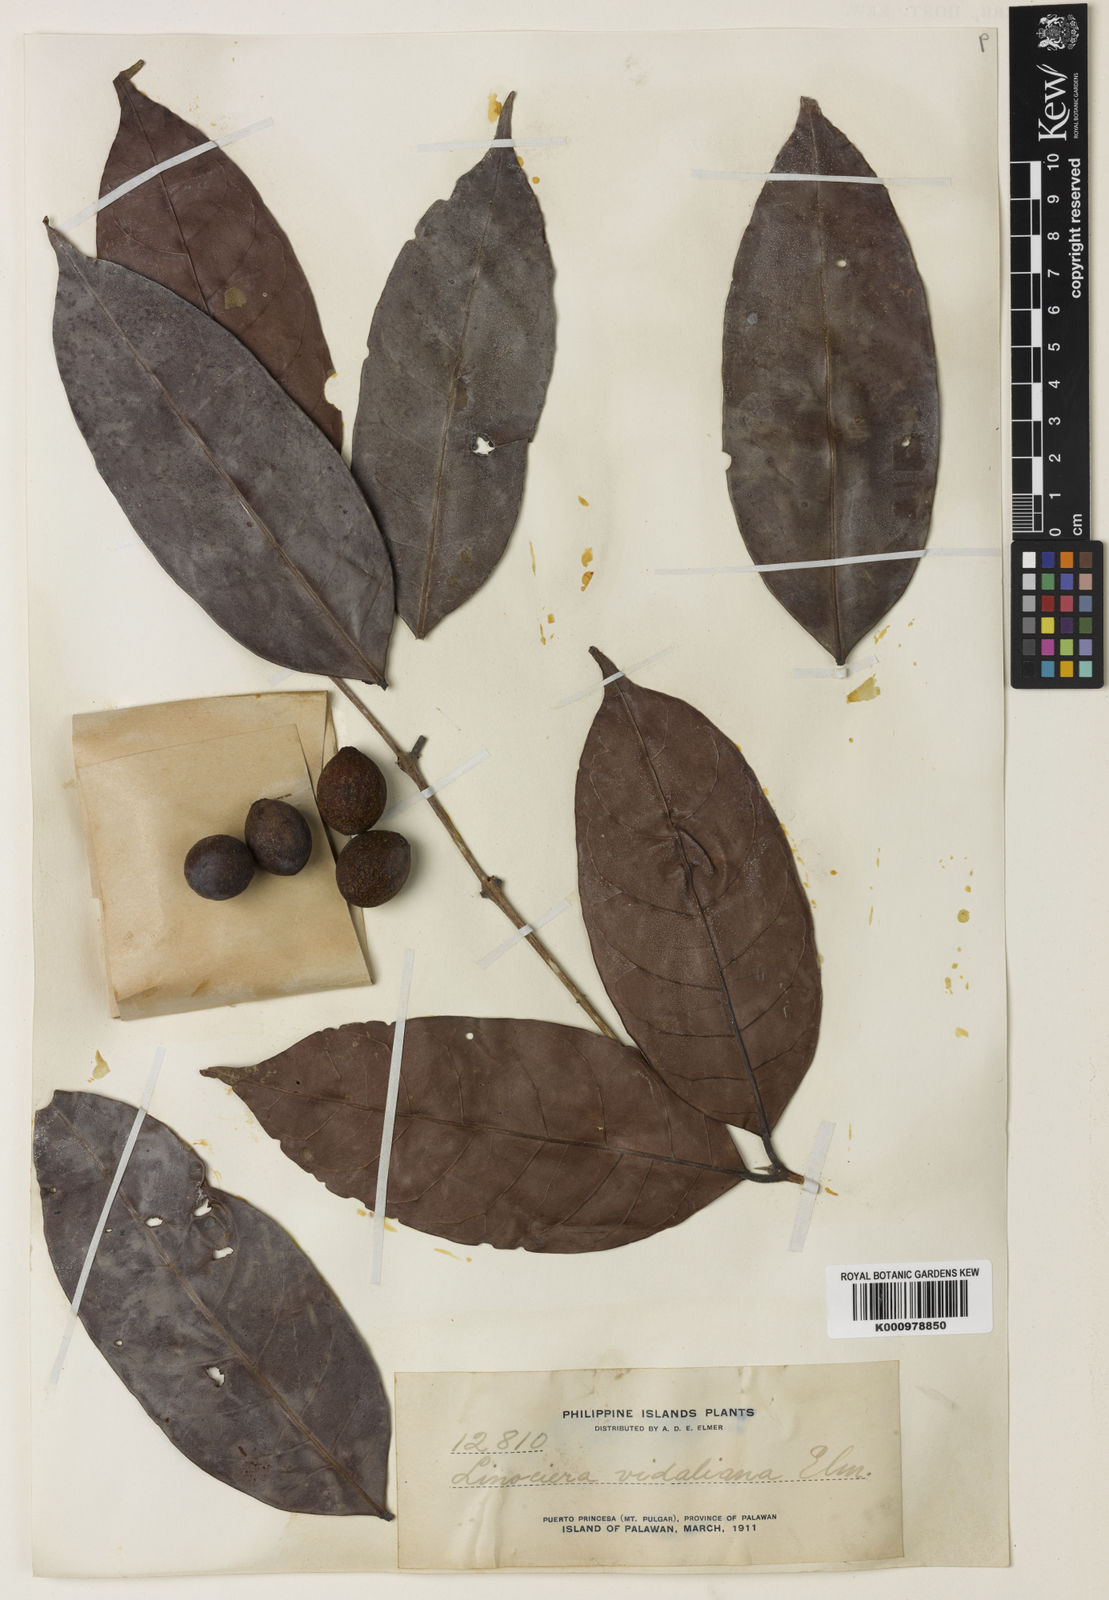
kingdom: Plantae
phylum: Tracheophyta
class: Magnoliopsida
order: Lamiales
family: Oleaceae
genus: Chionanthus
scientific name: Chionanthus
